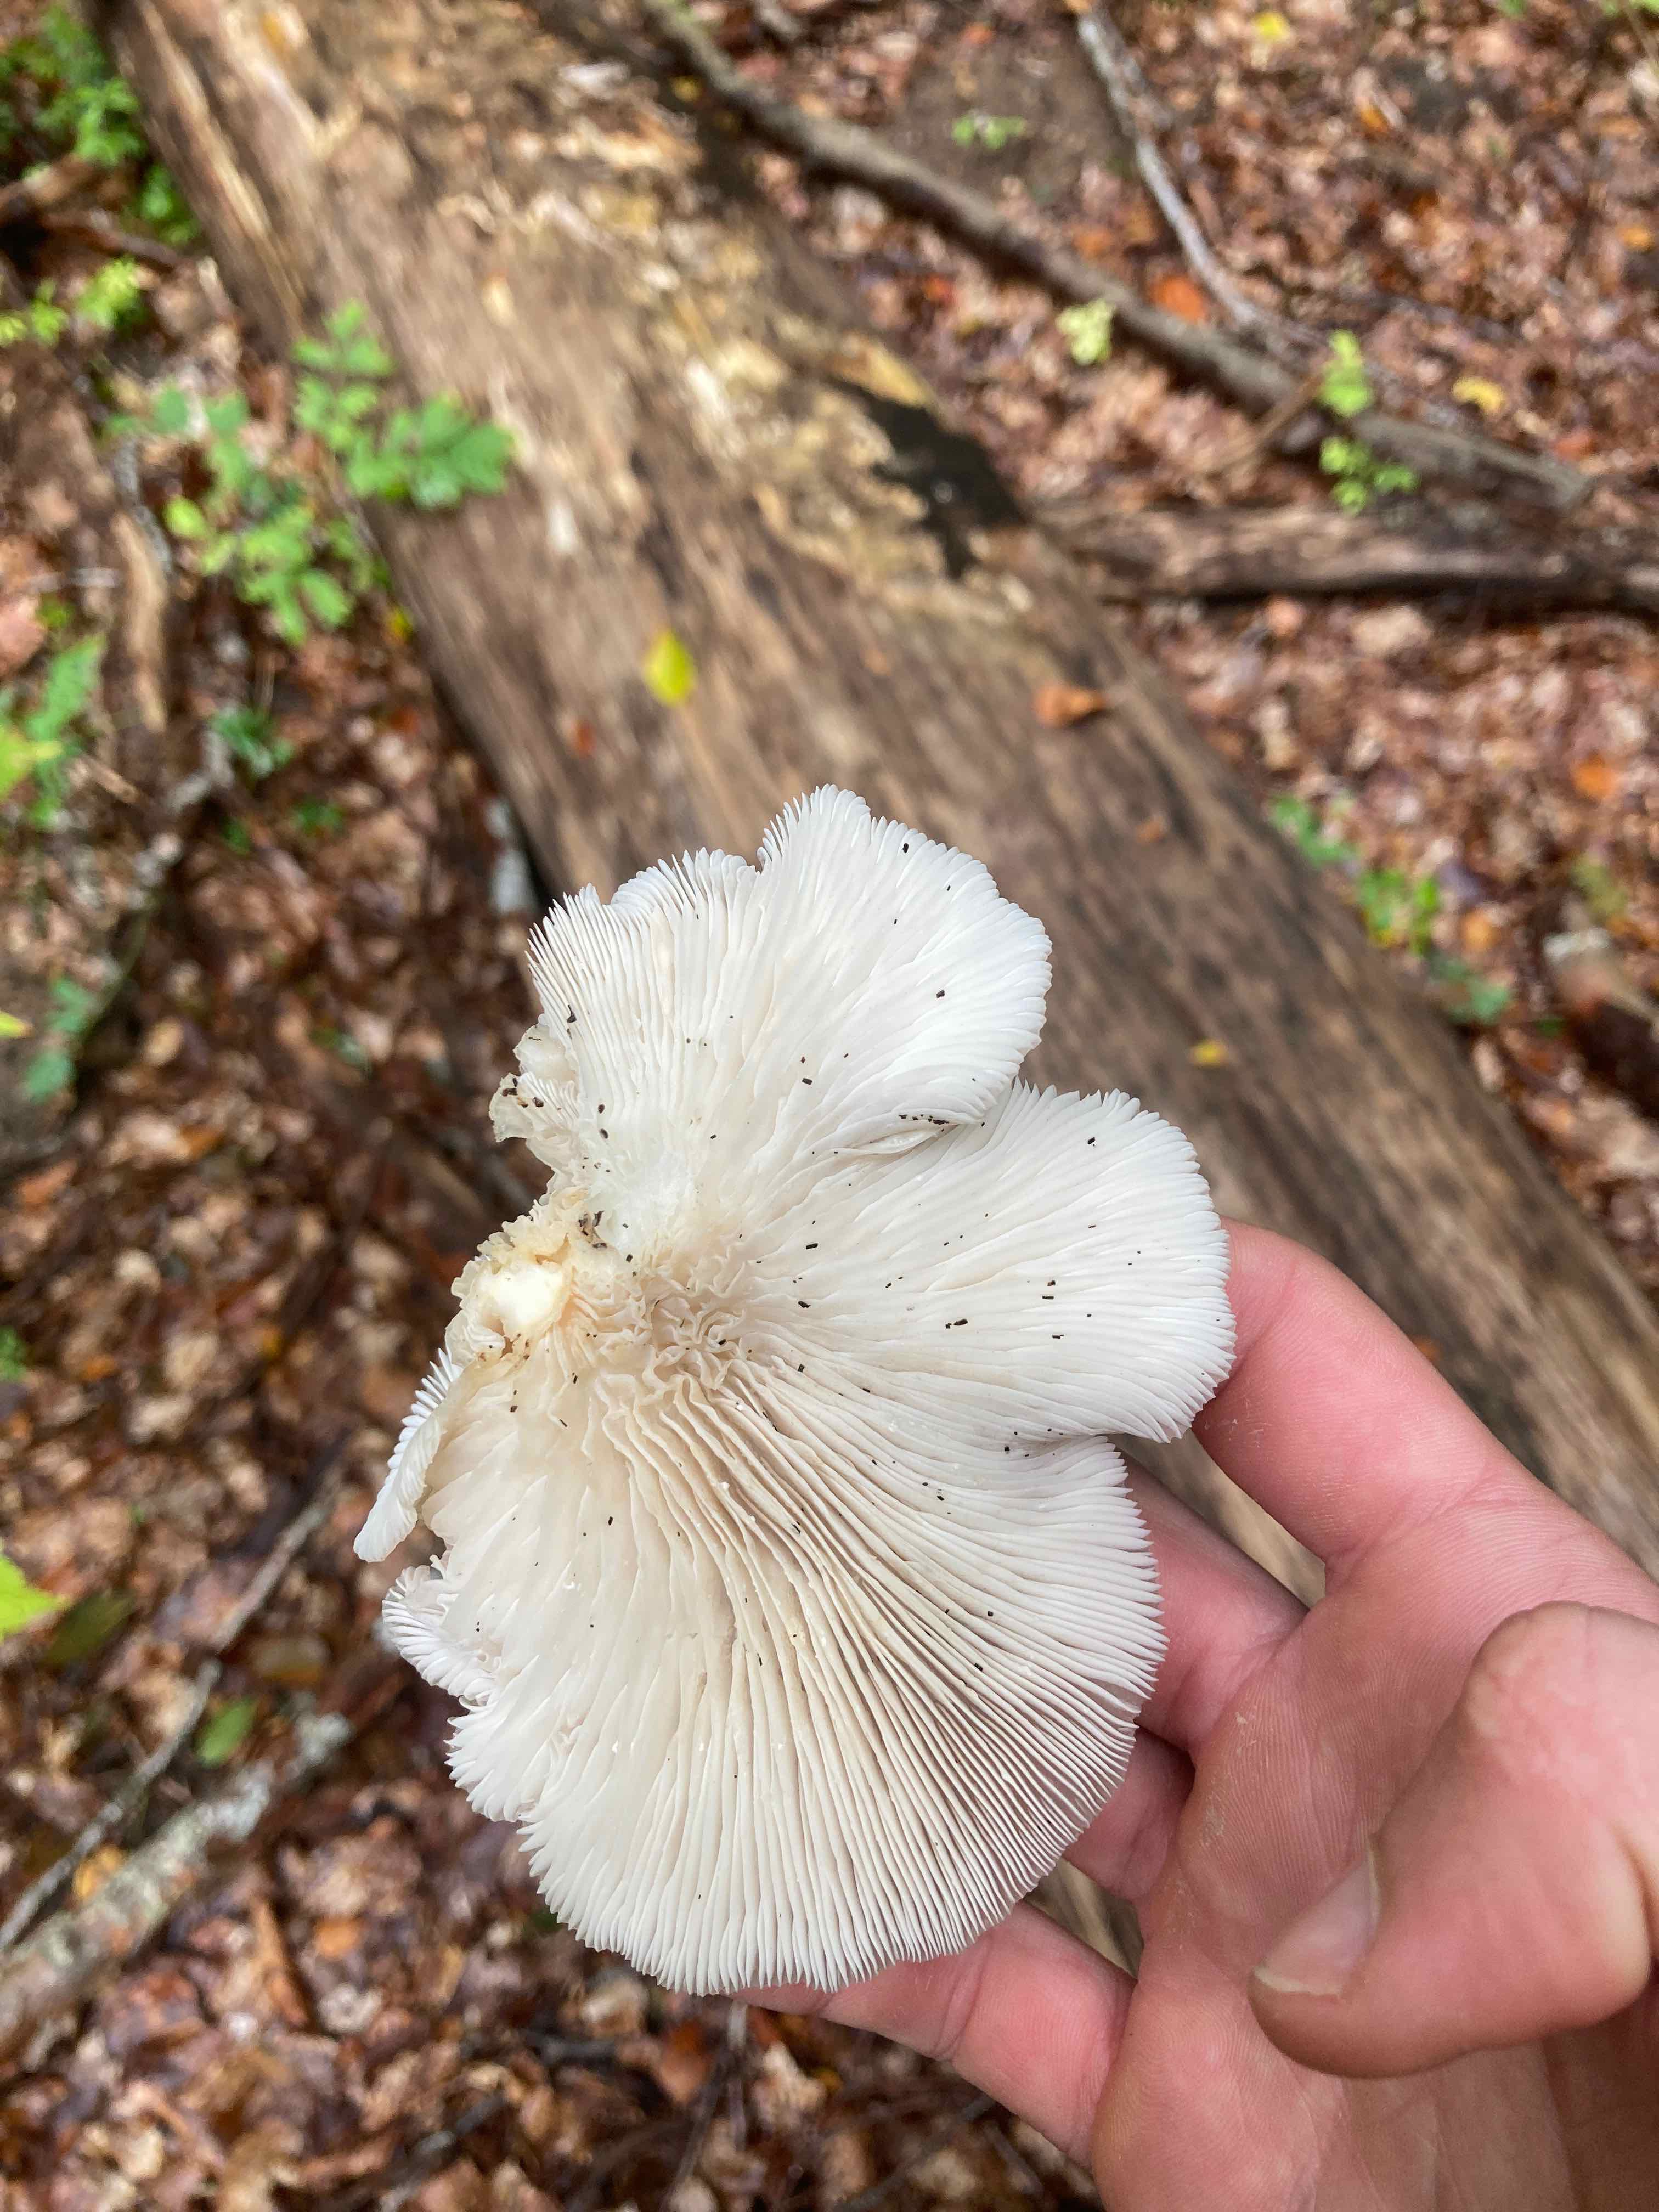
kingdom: Fungi
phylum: Basidiomycota
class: Agaricomycetes
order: Agaricales
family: Pleurotaceae
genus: Pleurotus
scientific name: Pleurotus pulmonarius
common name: sommer-østershat
